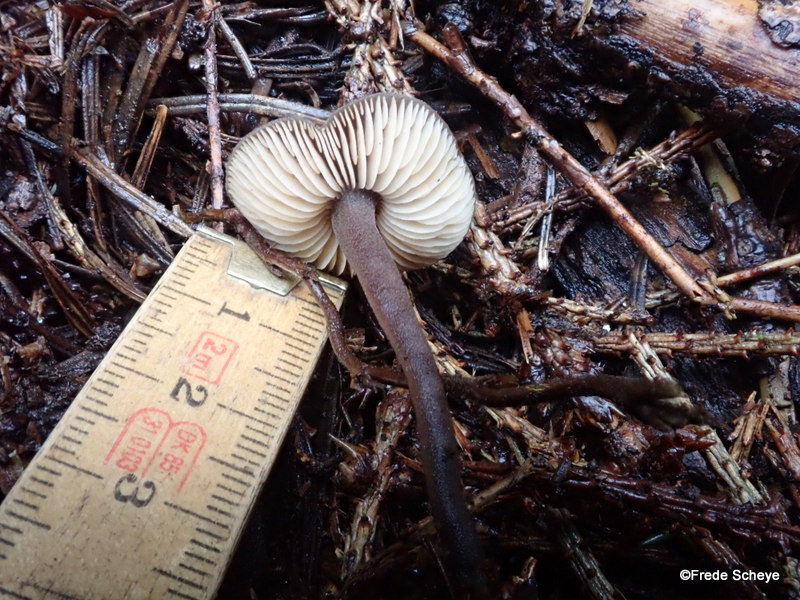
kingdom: Fungi
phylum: Basidiomycota
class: Agaricomycetes
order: Agaricales
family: Macrocystidiaceae
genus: Macrocystidia
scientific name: Macrocystidia cucumis
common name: agurkehat
